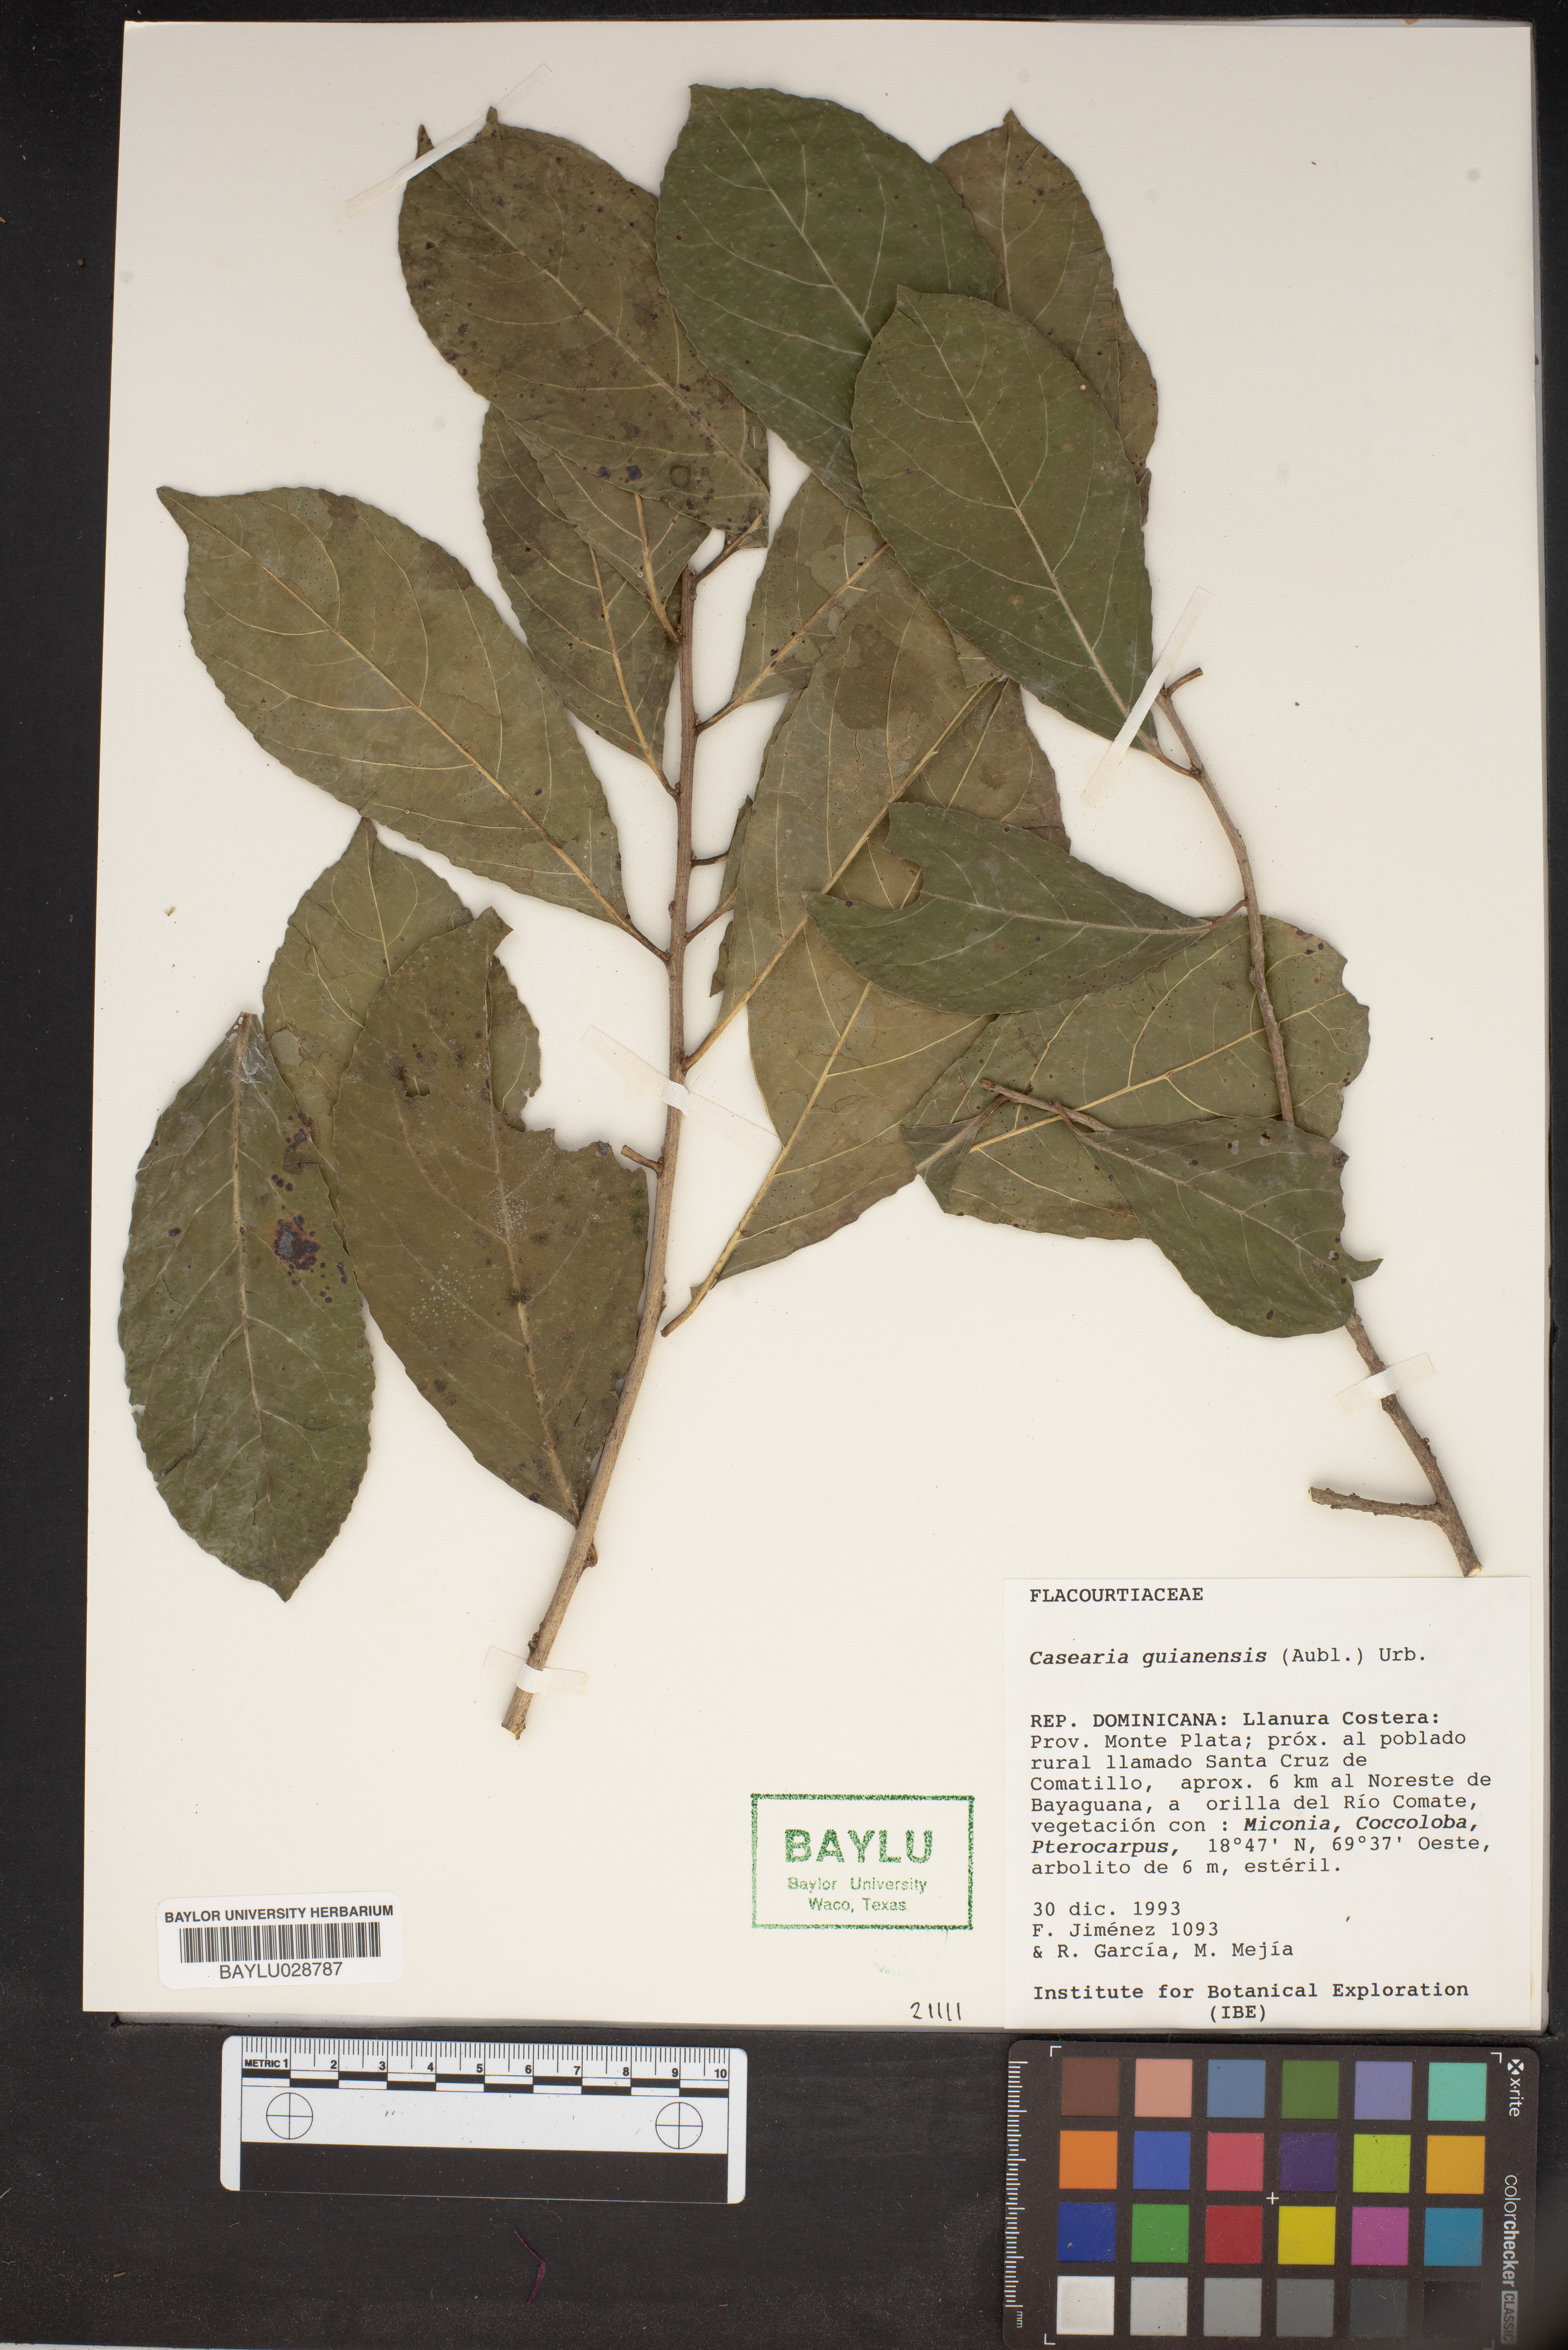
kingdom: Plantae
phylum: Tracheophyta
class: Magnoliopsida
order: Malpighiales
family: Salicaceae
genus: Casearia
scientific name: Casearia guianensis
